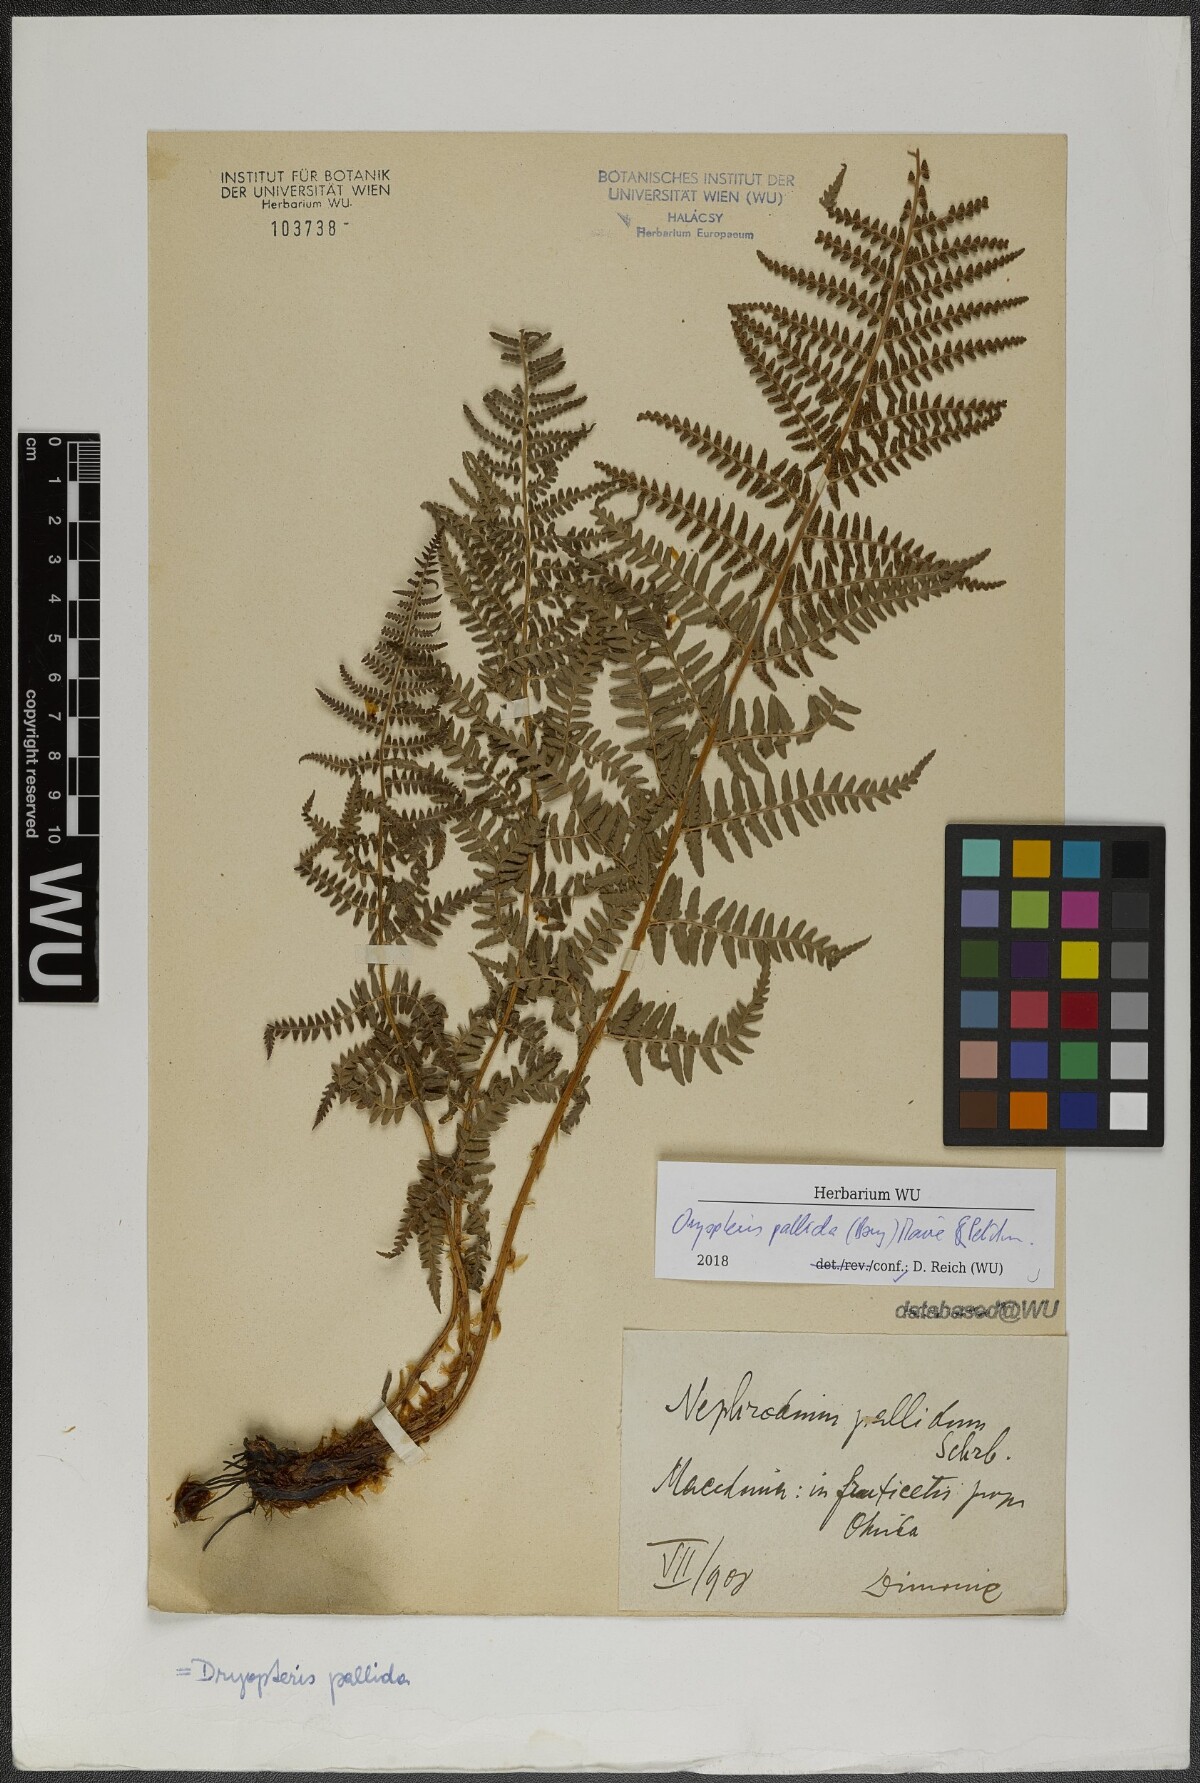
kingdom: Plantae
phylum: Tracheophyta
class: Polypodiopsida
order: Polypodiales
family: Dryopteridaceae
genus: Dryopteris
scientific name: Dryopteris pallida
